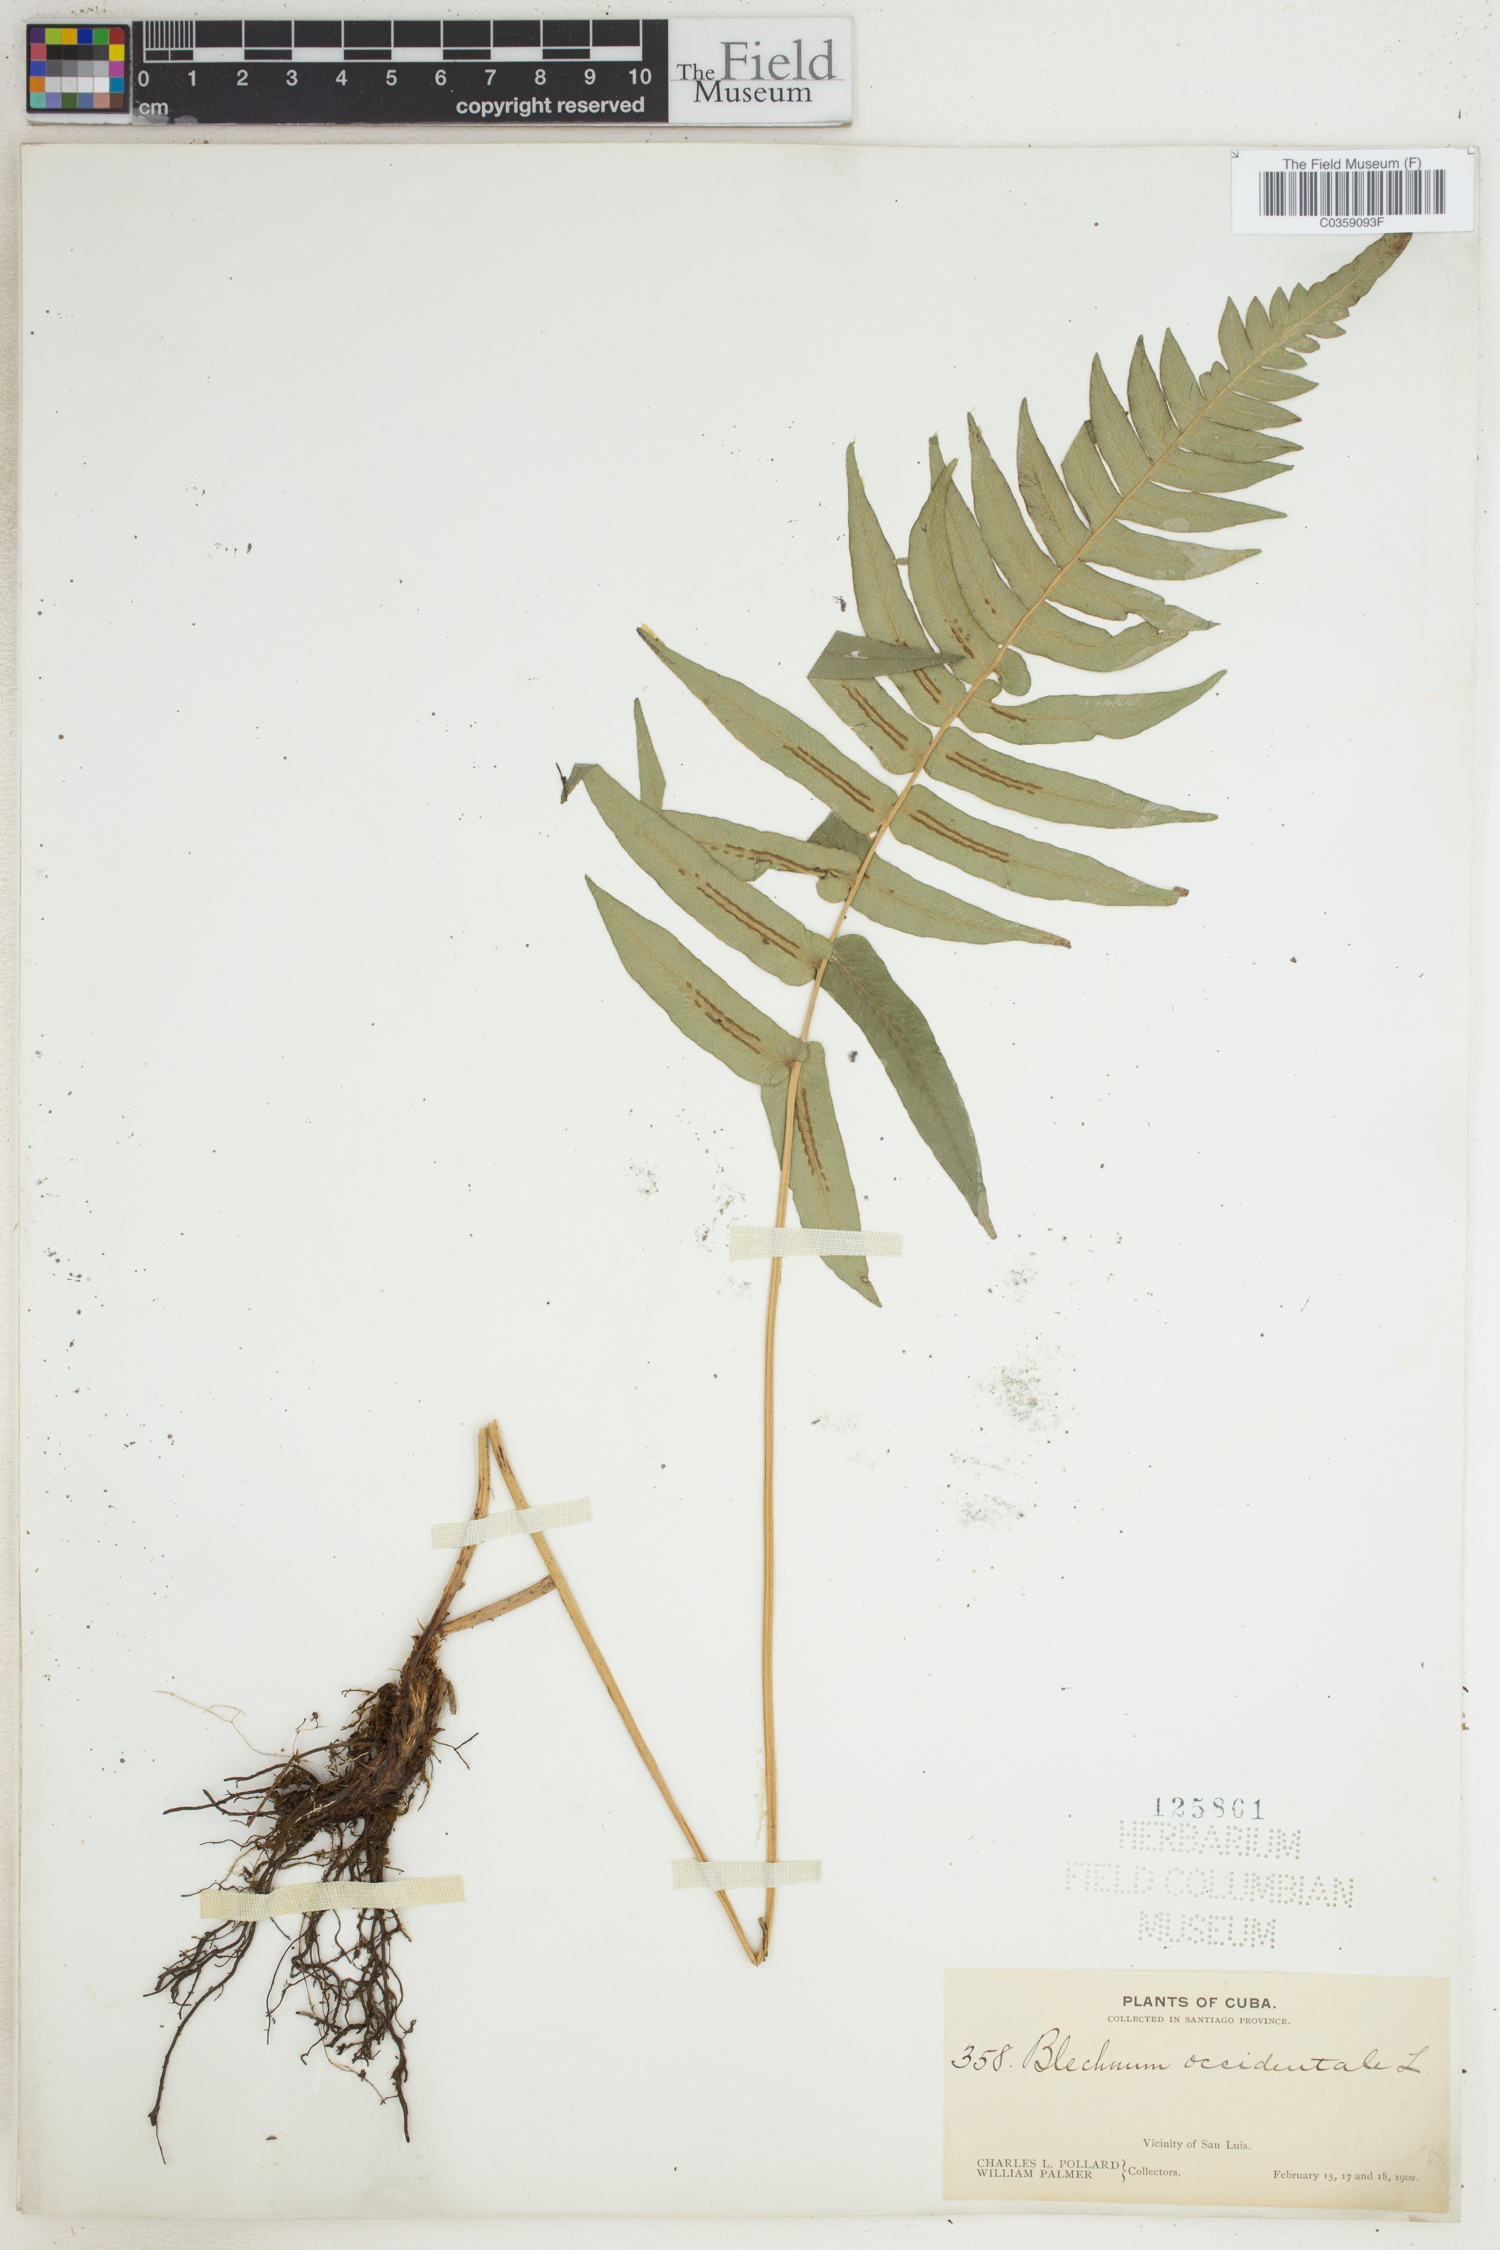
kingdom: Plantae
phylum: Tracheophyta
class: Polypodiopsida
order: Polypodiales
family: Blechnaceae
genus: Blechnum
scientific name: Blechnum occidentale
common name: Hammock fern
